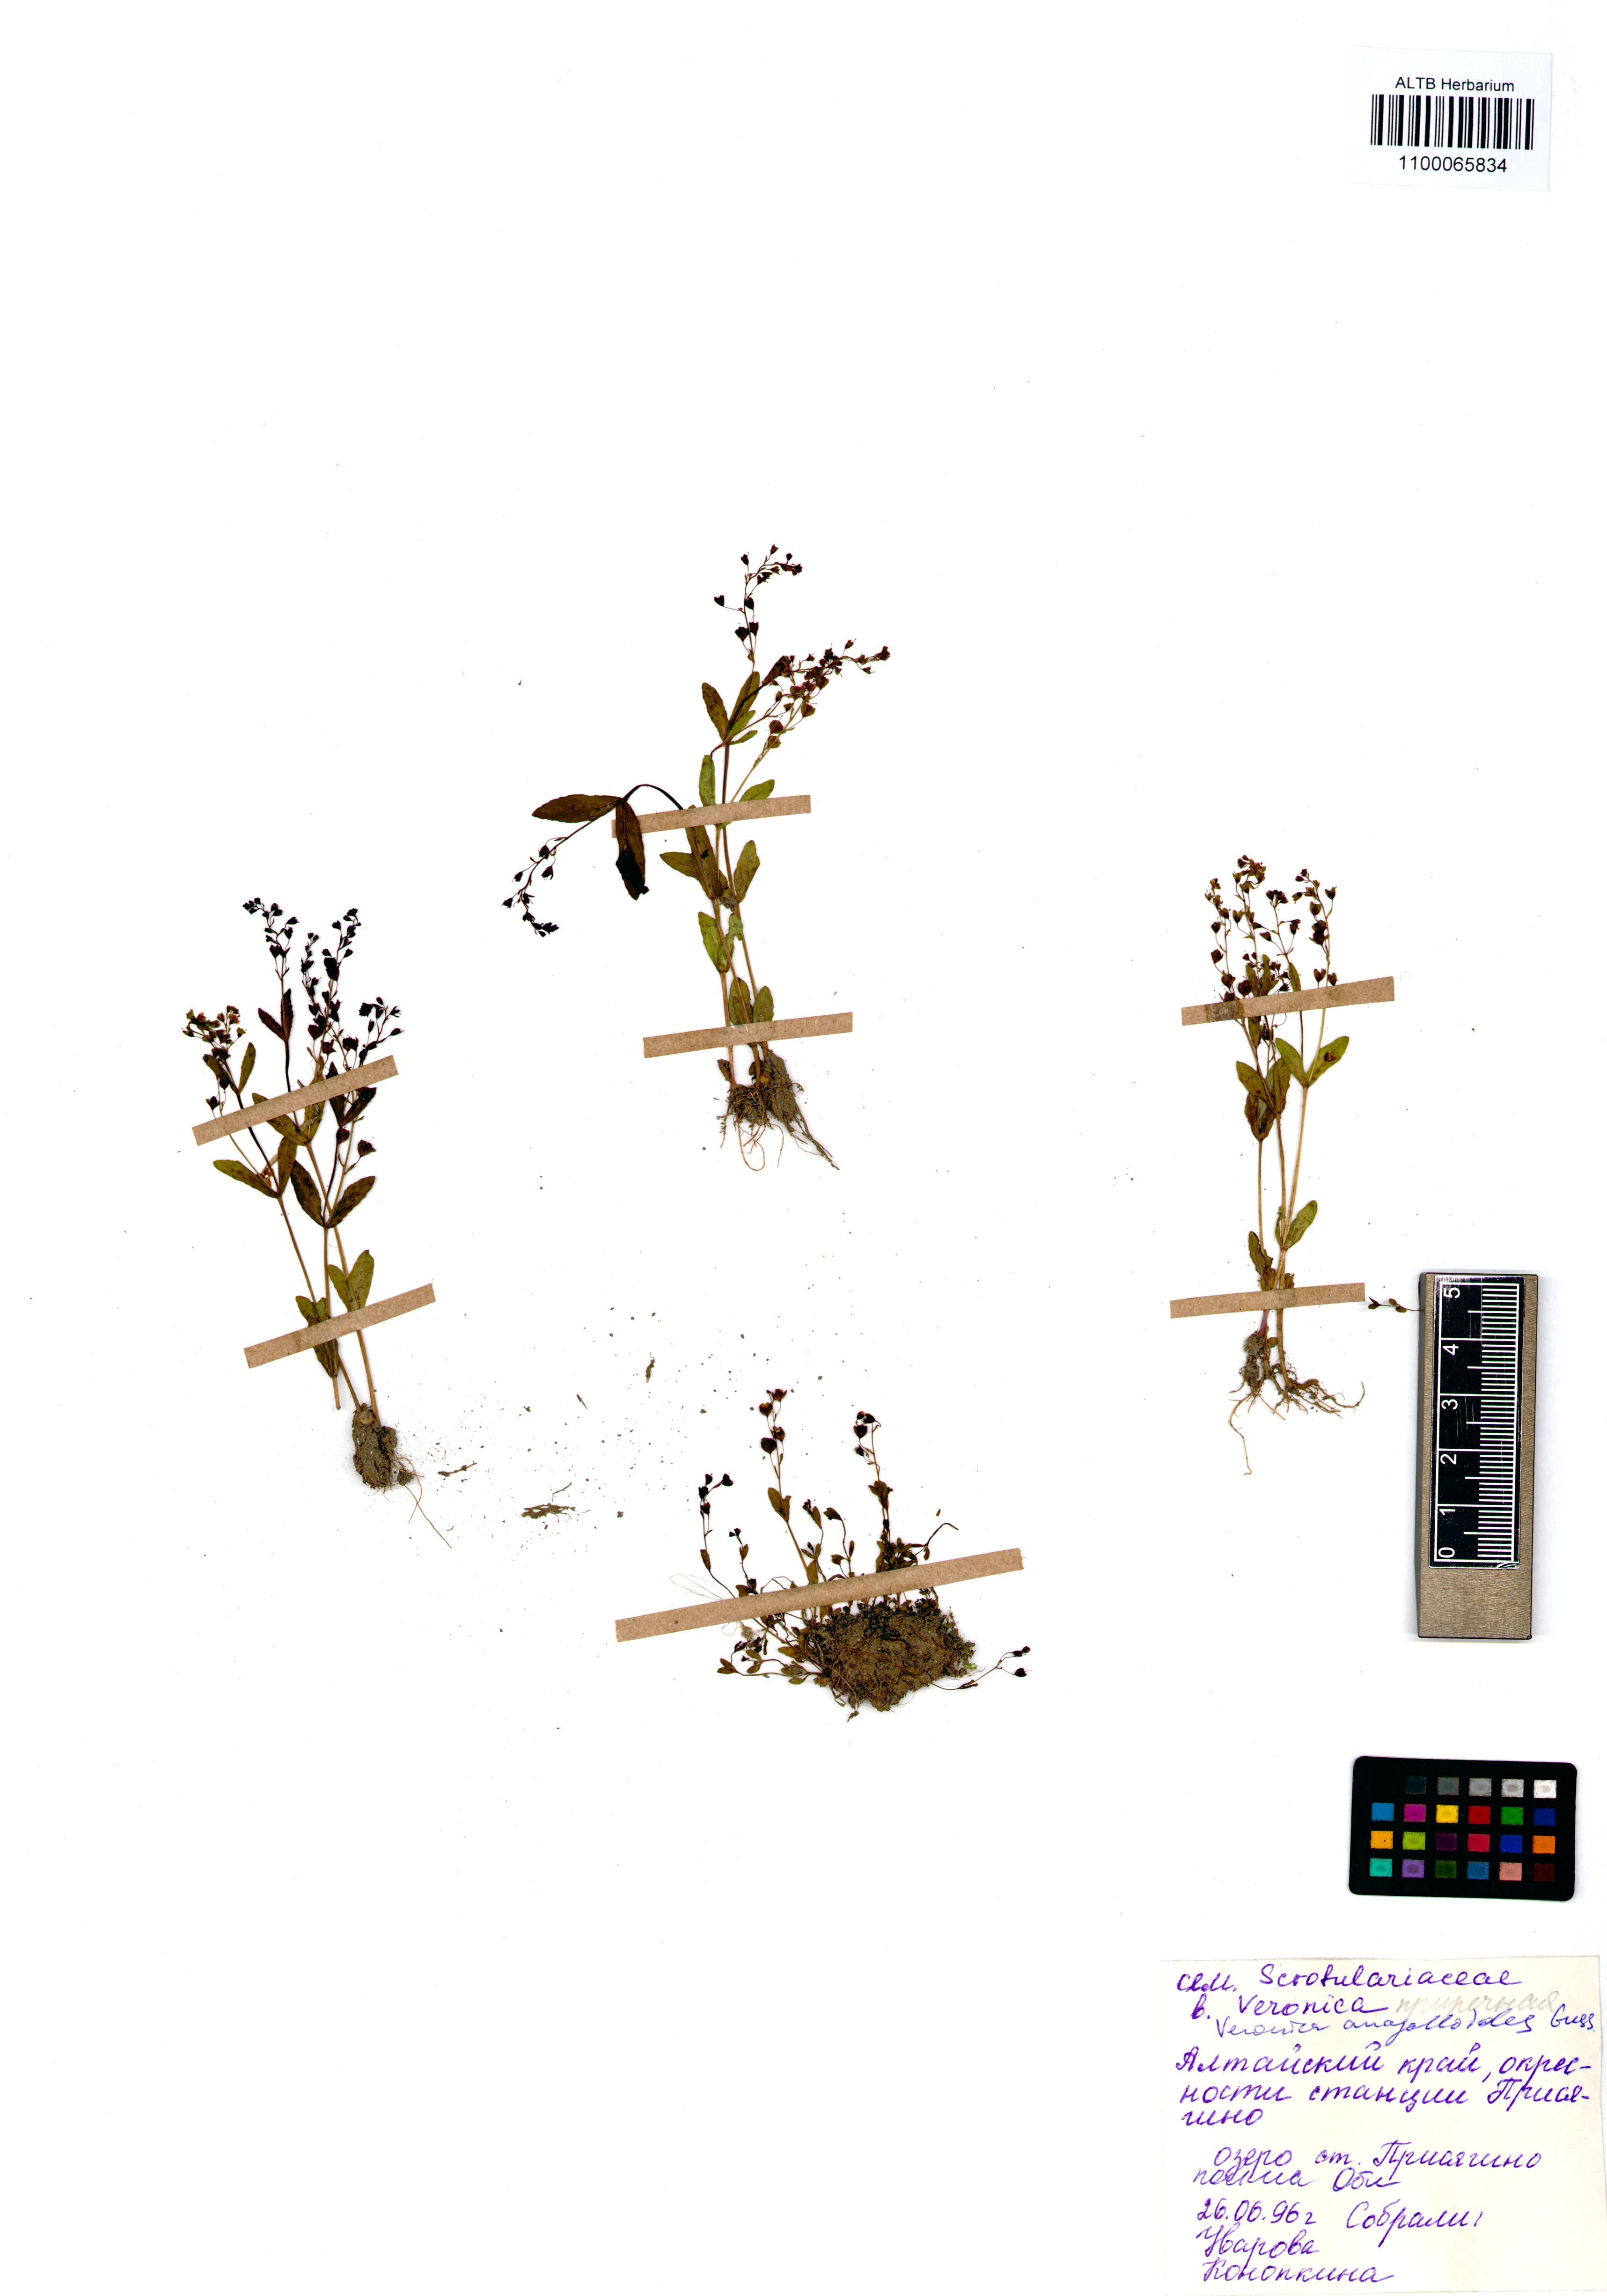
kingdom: Plantae
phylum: Tracheophyta
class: Magnoliopsida
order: Lamiales
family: Plantaginaceae
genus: Veronica
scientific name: Veronica anagalloides
